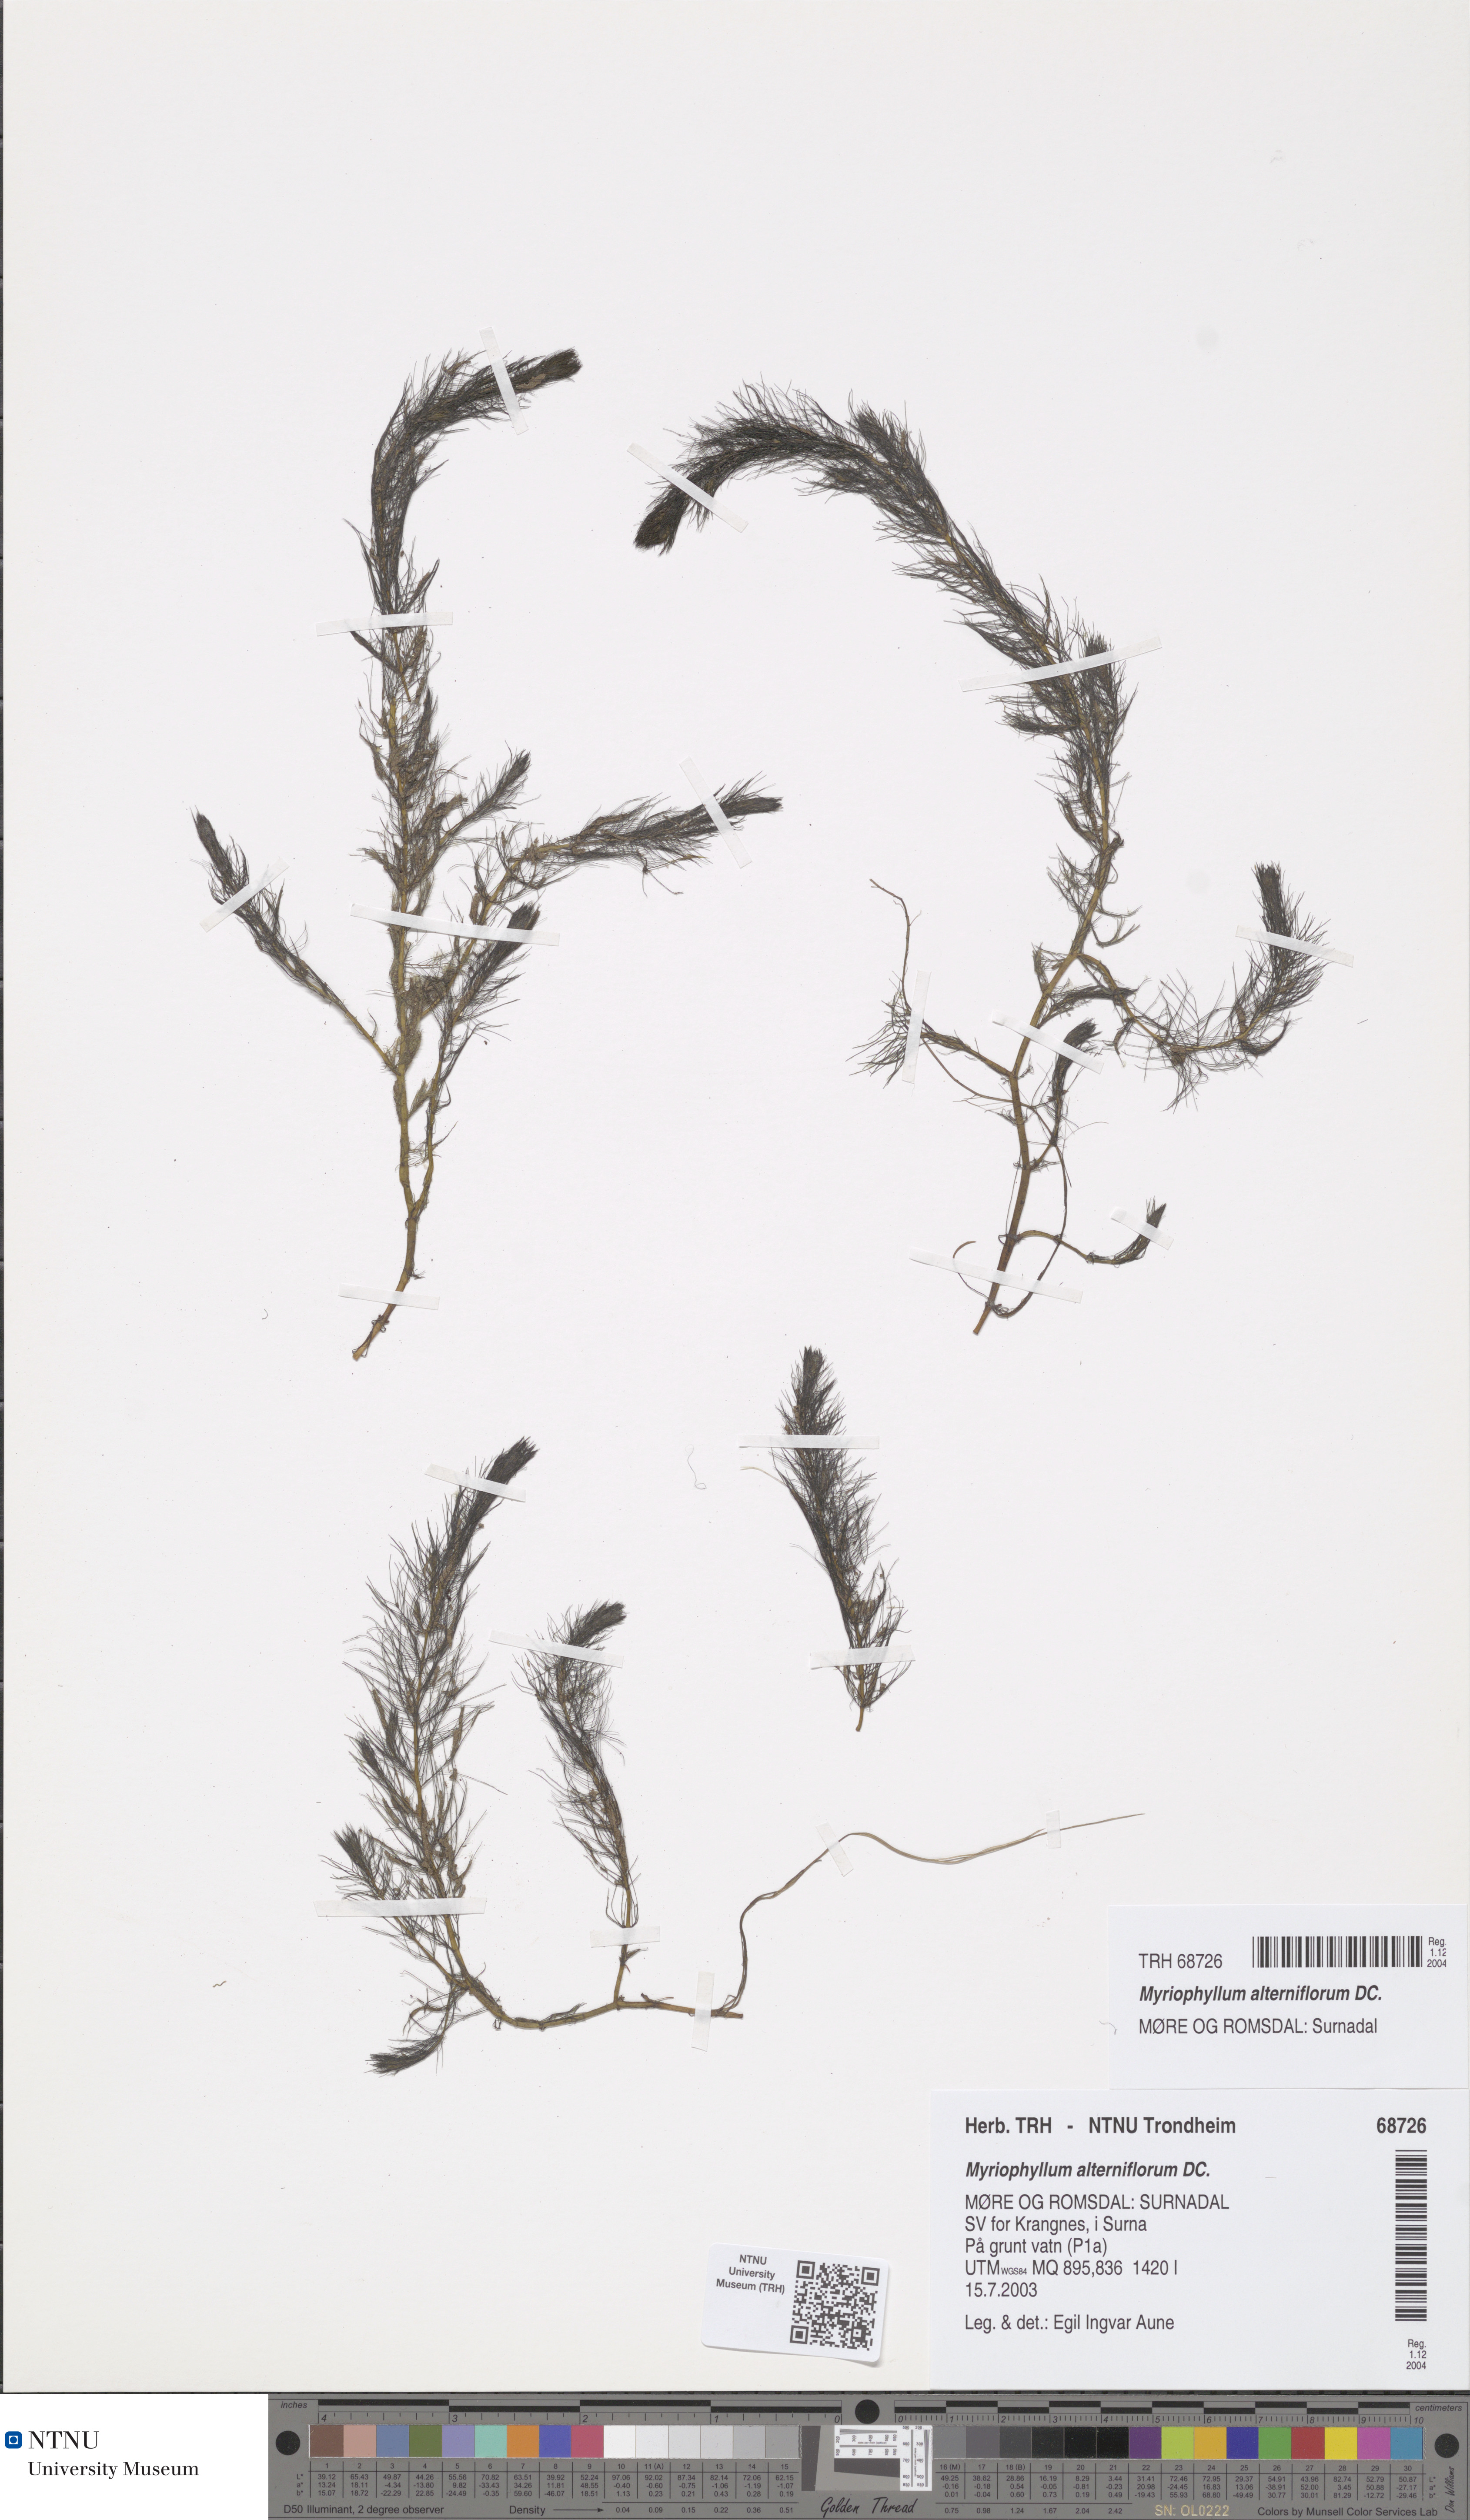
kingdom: Plantae
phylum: Tracheophyta
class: Magnoliopsida
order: Saxifragales
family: Haloragaceae
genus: Myriophyllum
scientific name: Myriophyllum alterniflorum
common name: Alternate water-milfoil
